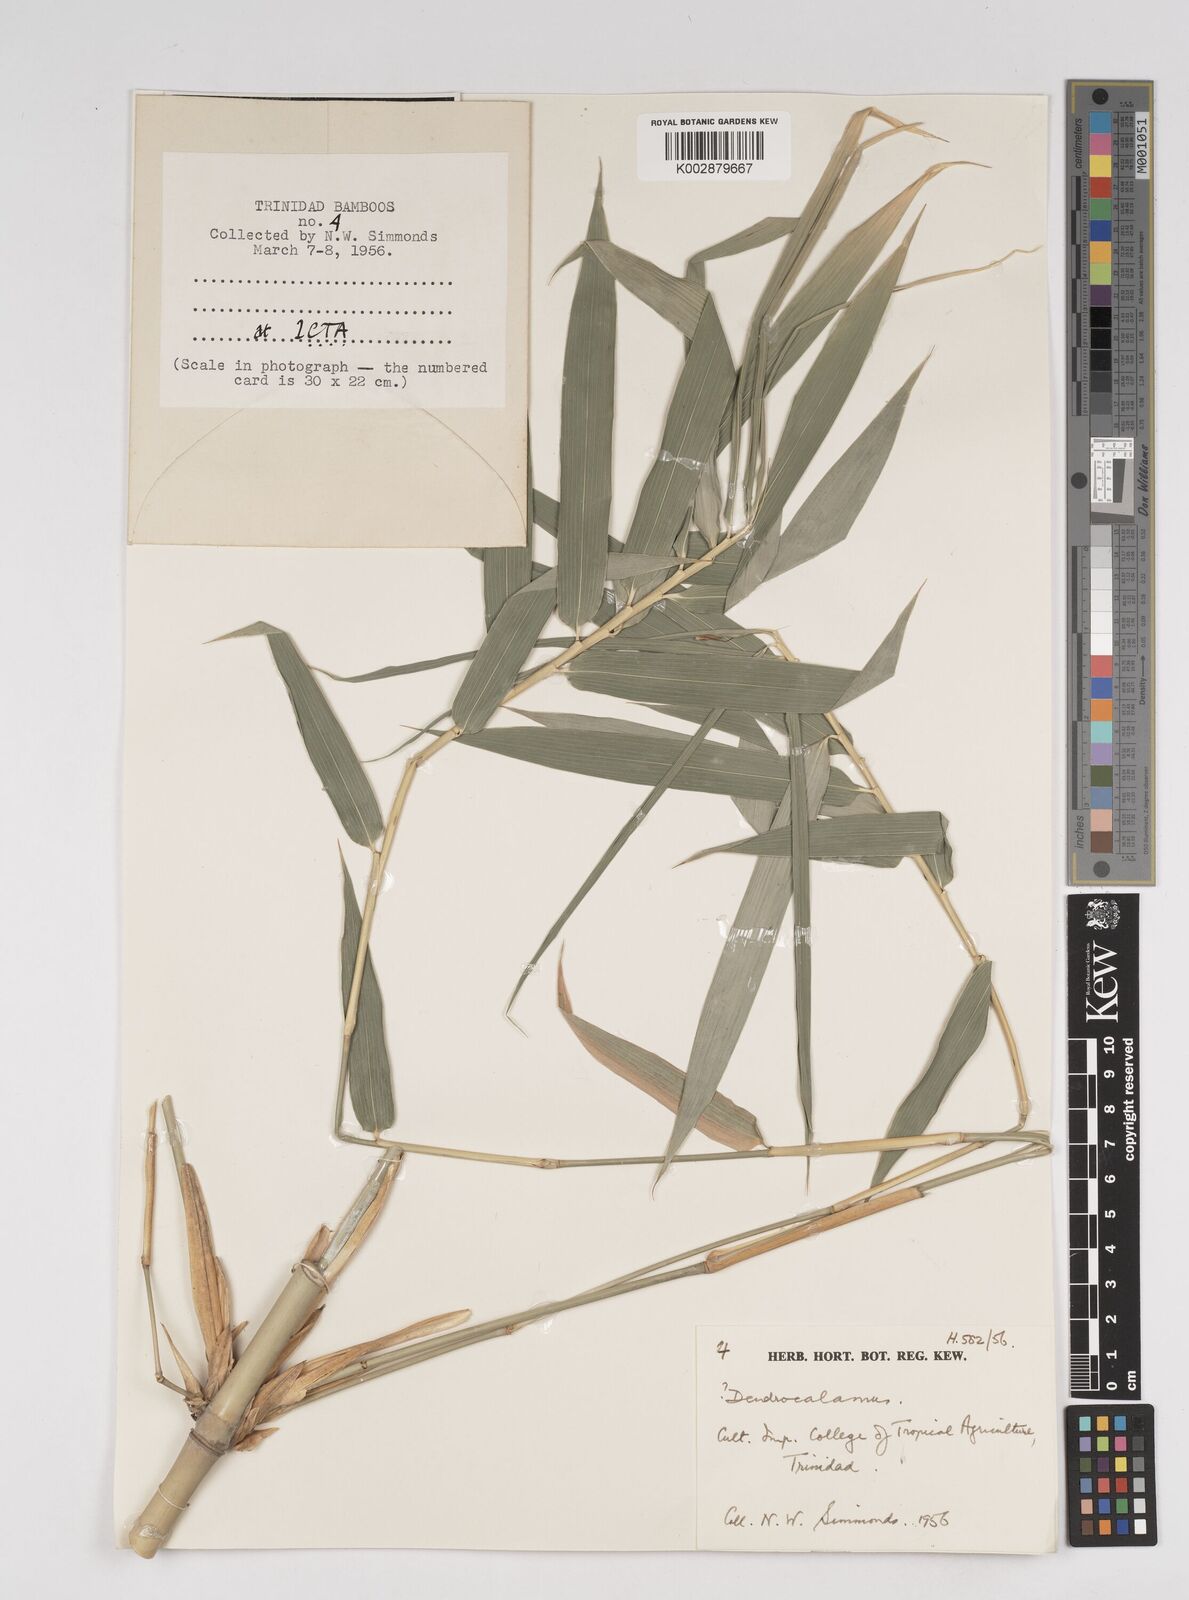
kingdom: Plantae
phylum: Tracheophyta
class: Liliopsida
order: Poales
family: Poaceae
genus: Dendrocalamus
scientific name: Dendrocalamus strictus
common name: Male bamboo
